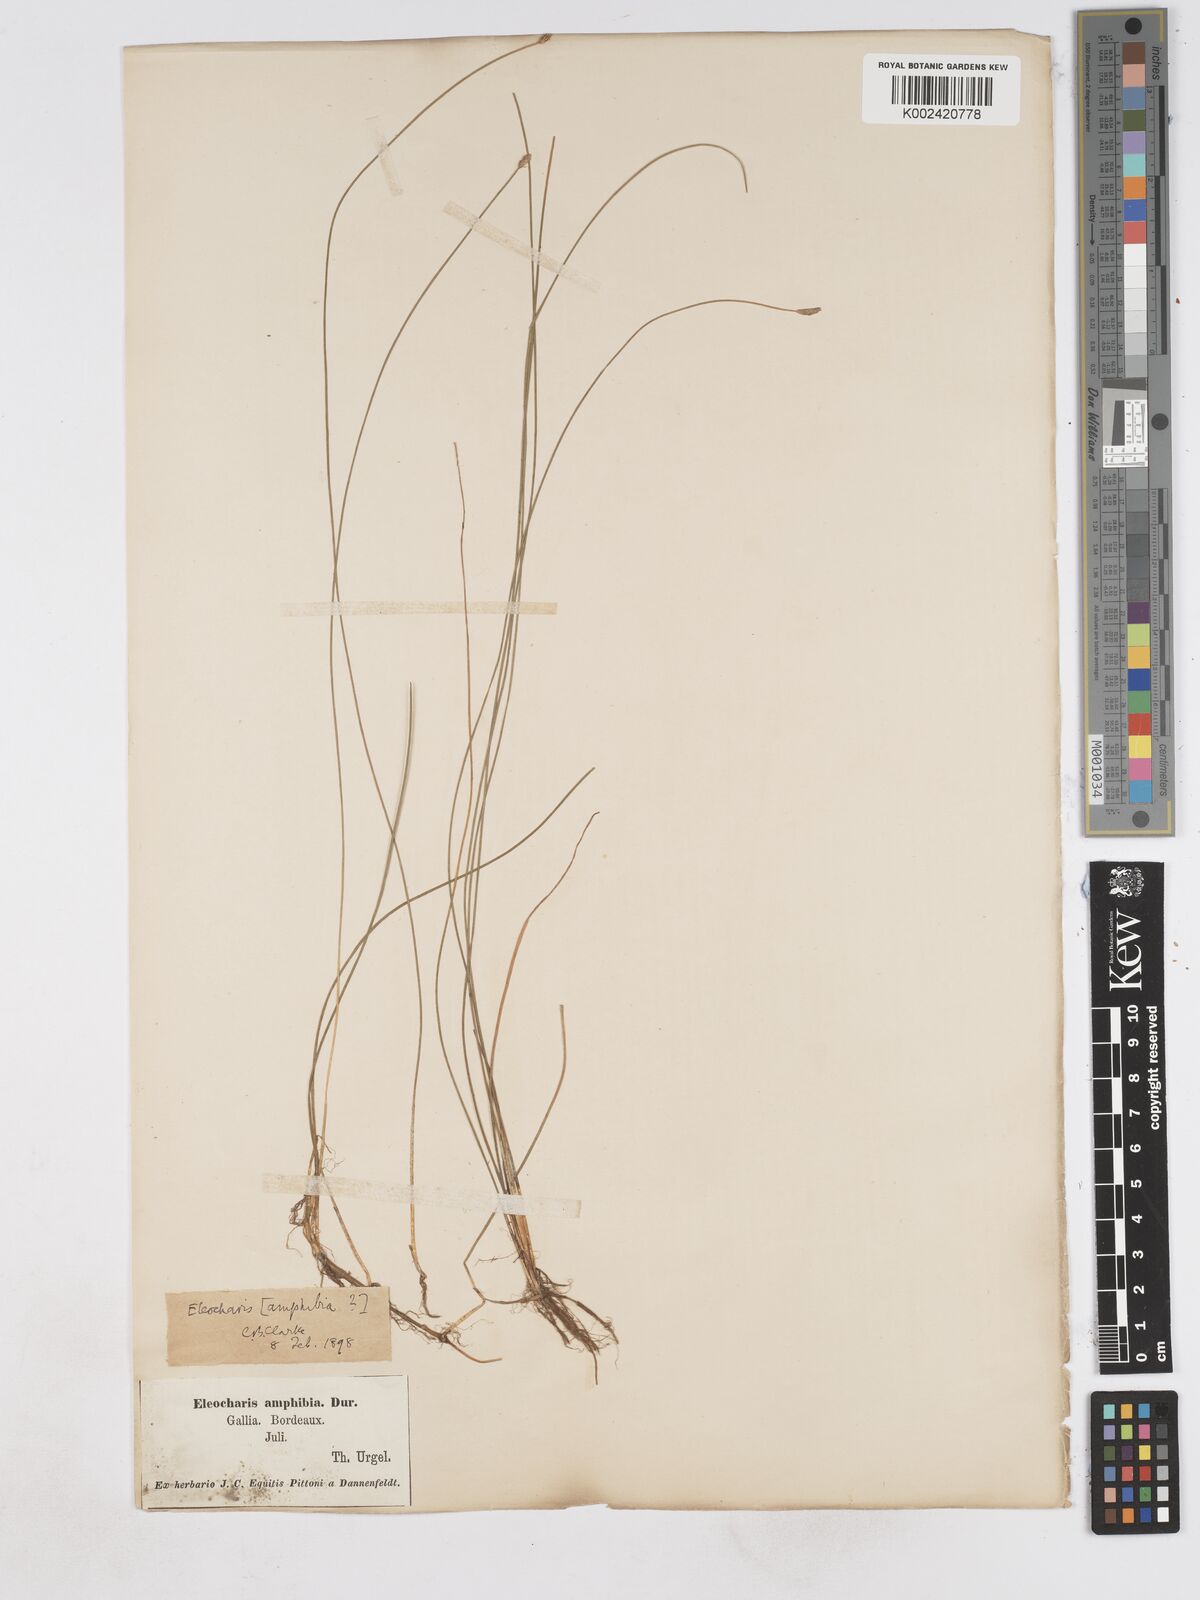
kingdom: Plantae
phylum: Tracheophyta
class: Liliopsida
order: Poales
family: Cyperaceae
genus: Eleocharis
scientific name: Eleocharis bonariensis
